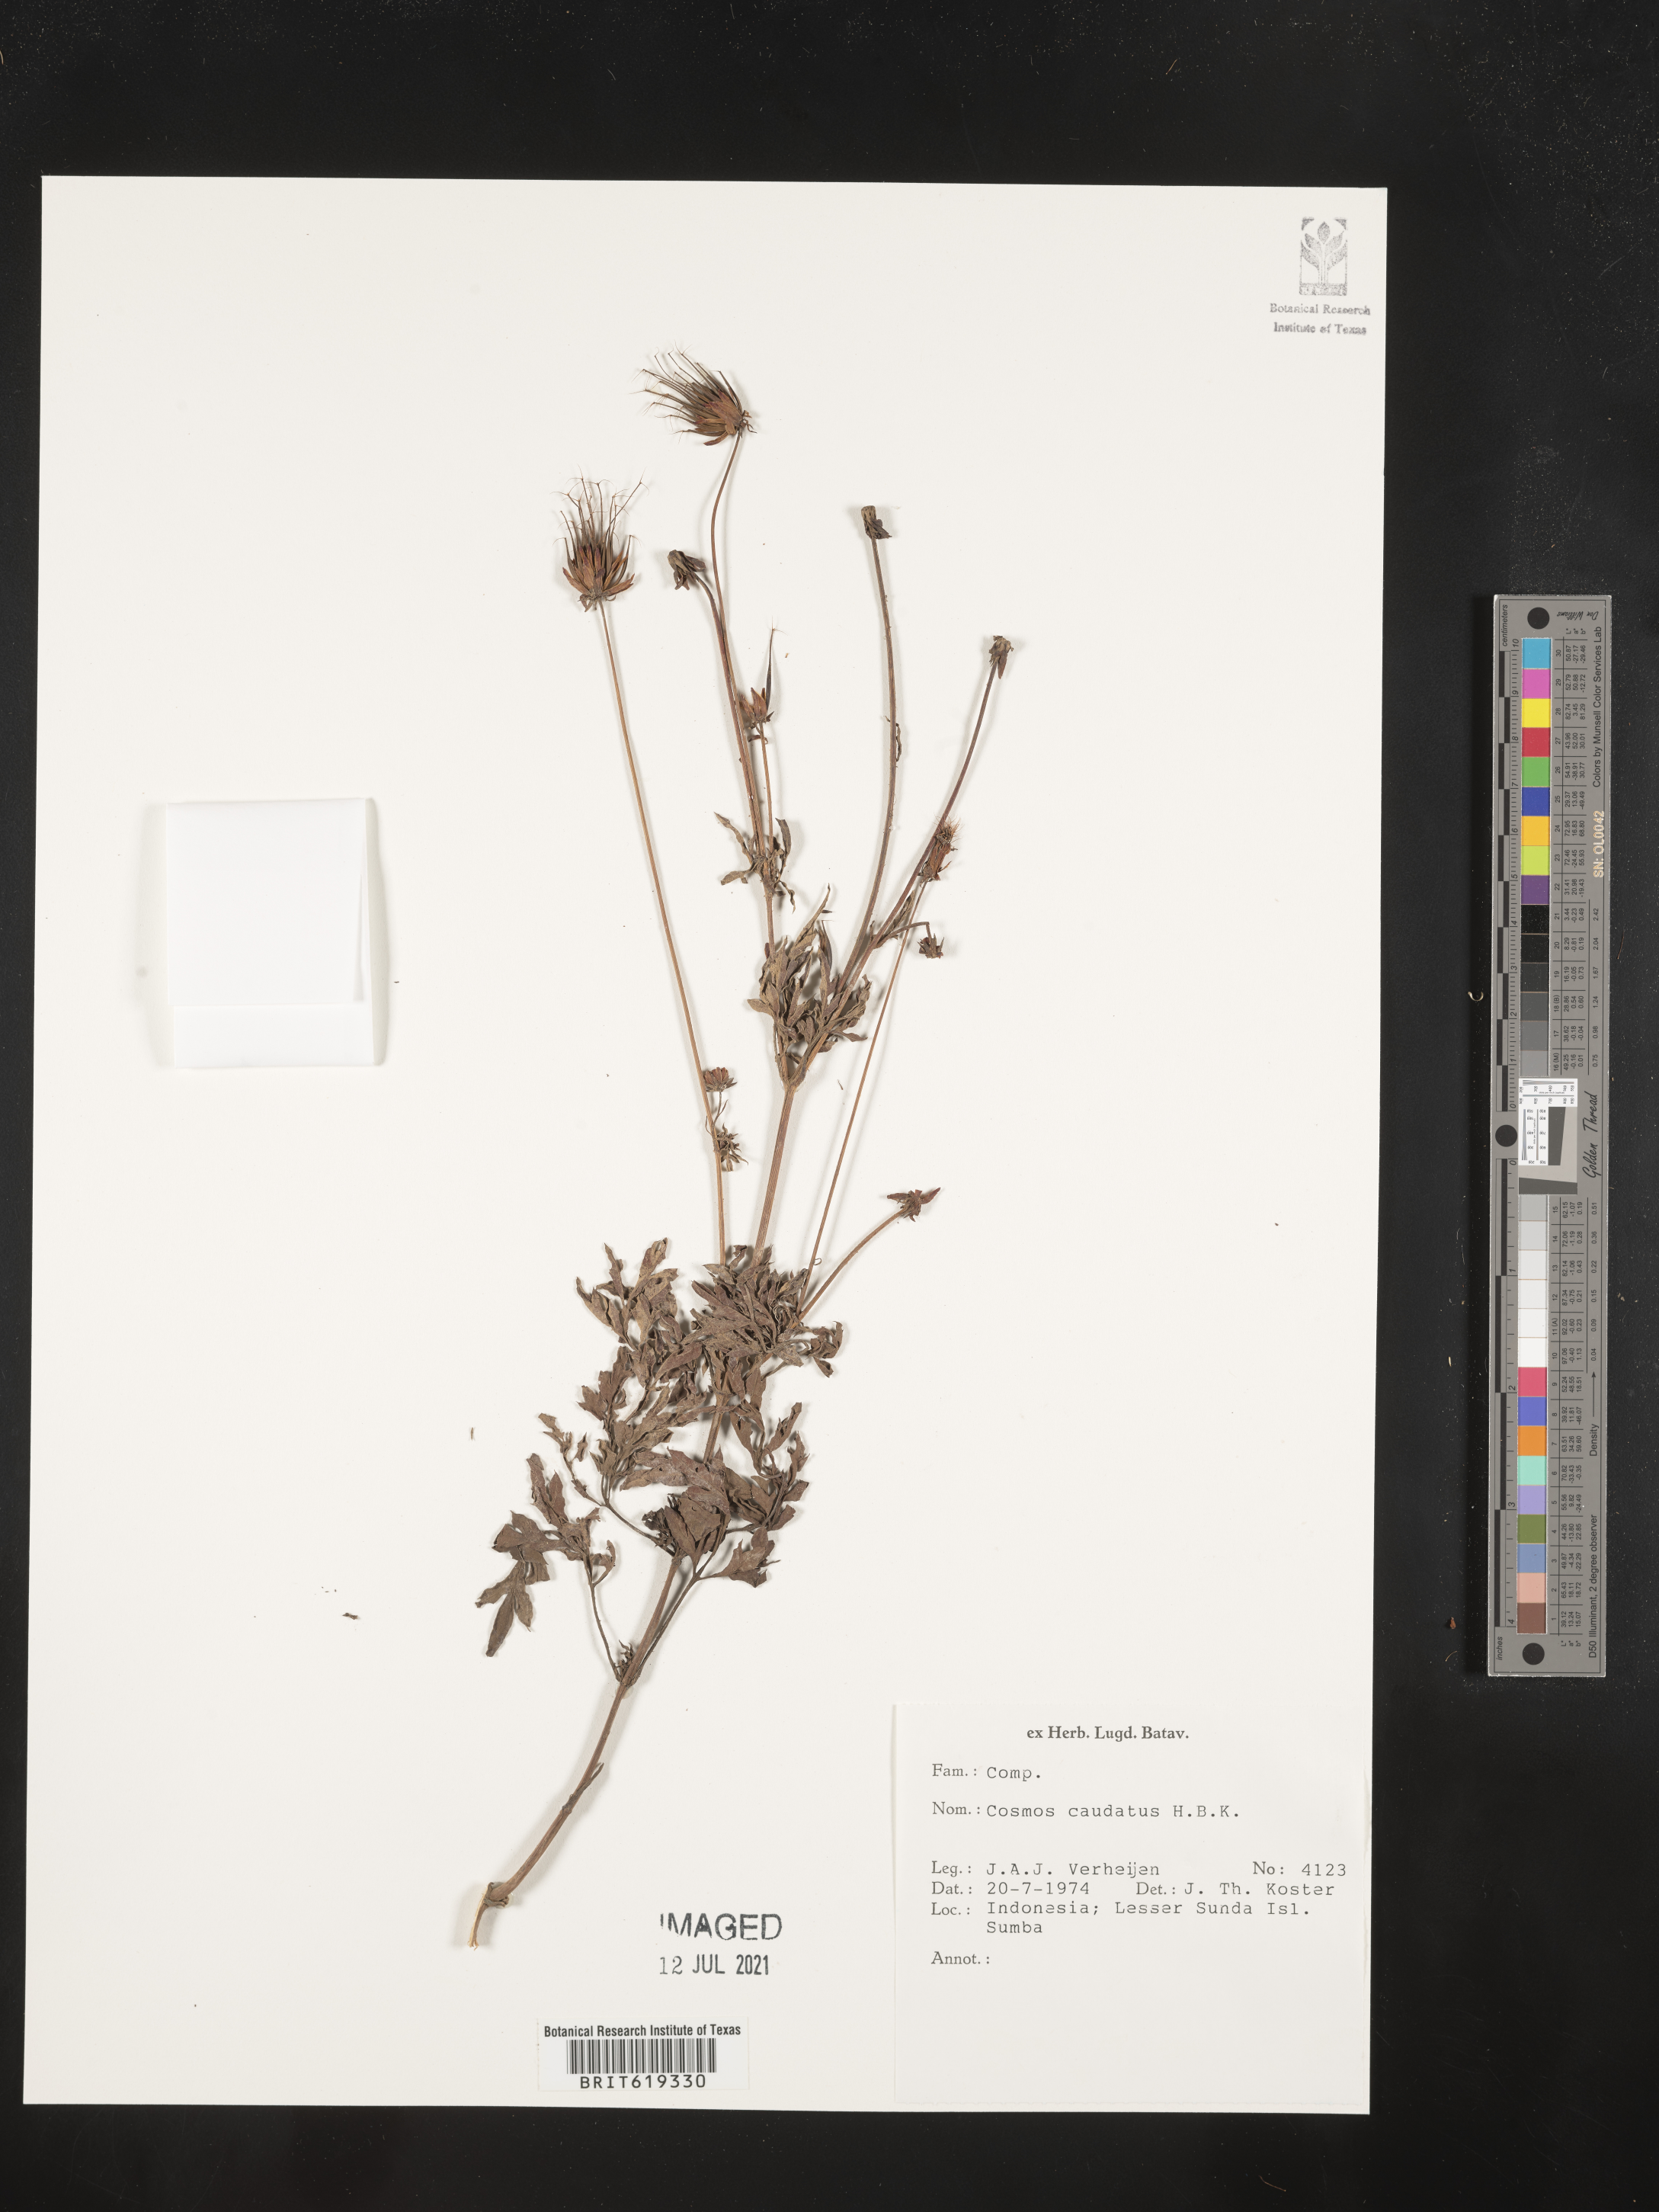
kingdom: Plantae
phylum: Tracheophyta
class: Magnoliopsida
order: Asterales
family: Asteraceae
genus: Cosmos
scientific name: Cosmos caudatus
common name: Wild cosmos
